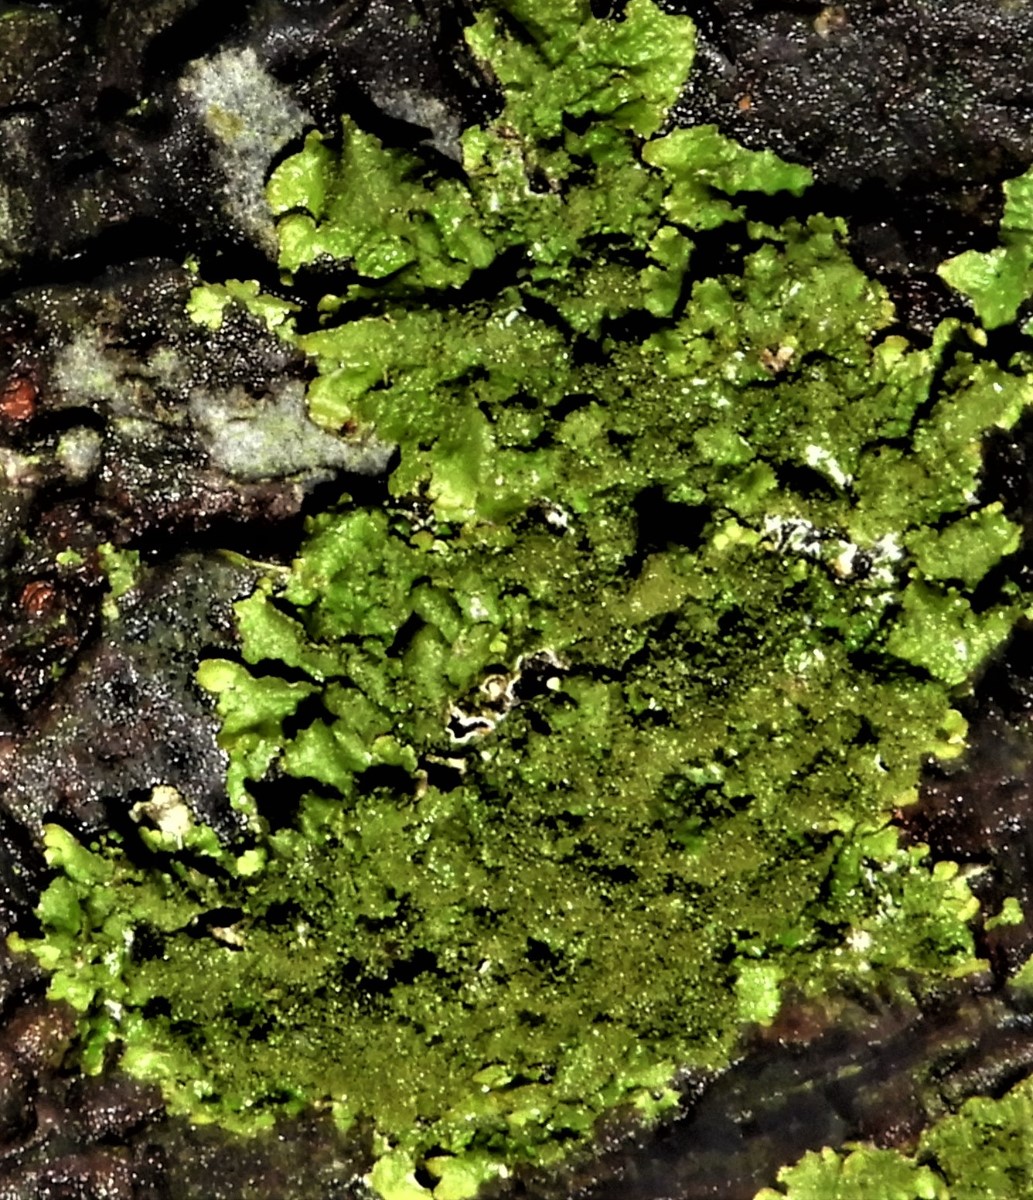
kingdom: Fungi
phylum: Ascomycota
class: Lecanoromycetes
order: Lecanorales
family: Parmeliaceae
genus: Melanelixia
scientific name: Melanelixia glabratula
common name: glinsende skållav
